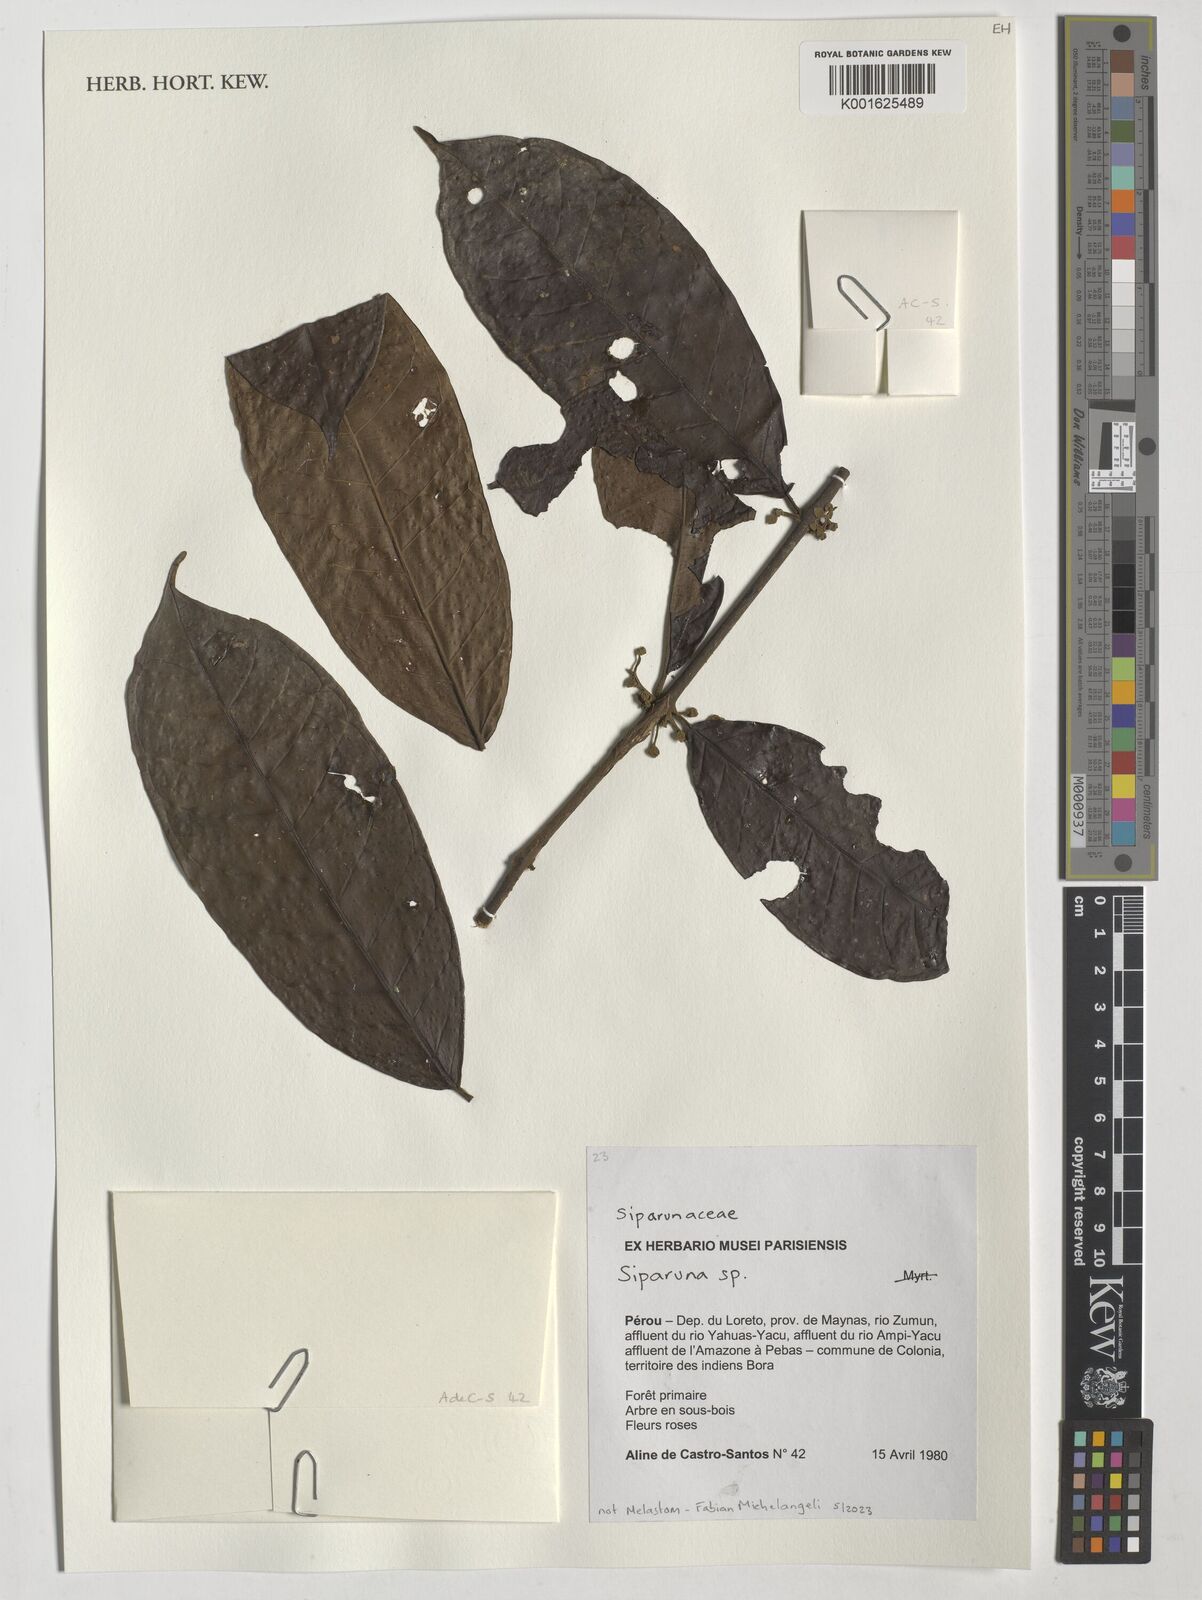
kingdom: Plantae
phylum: Tracheophyta
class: Magnoliopsida
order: Laurales
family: Siparunaceae
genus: Siparuna
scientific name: Siparuna
